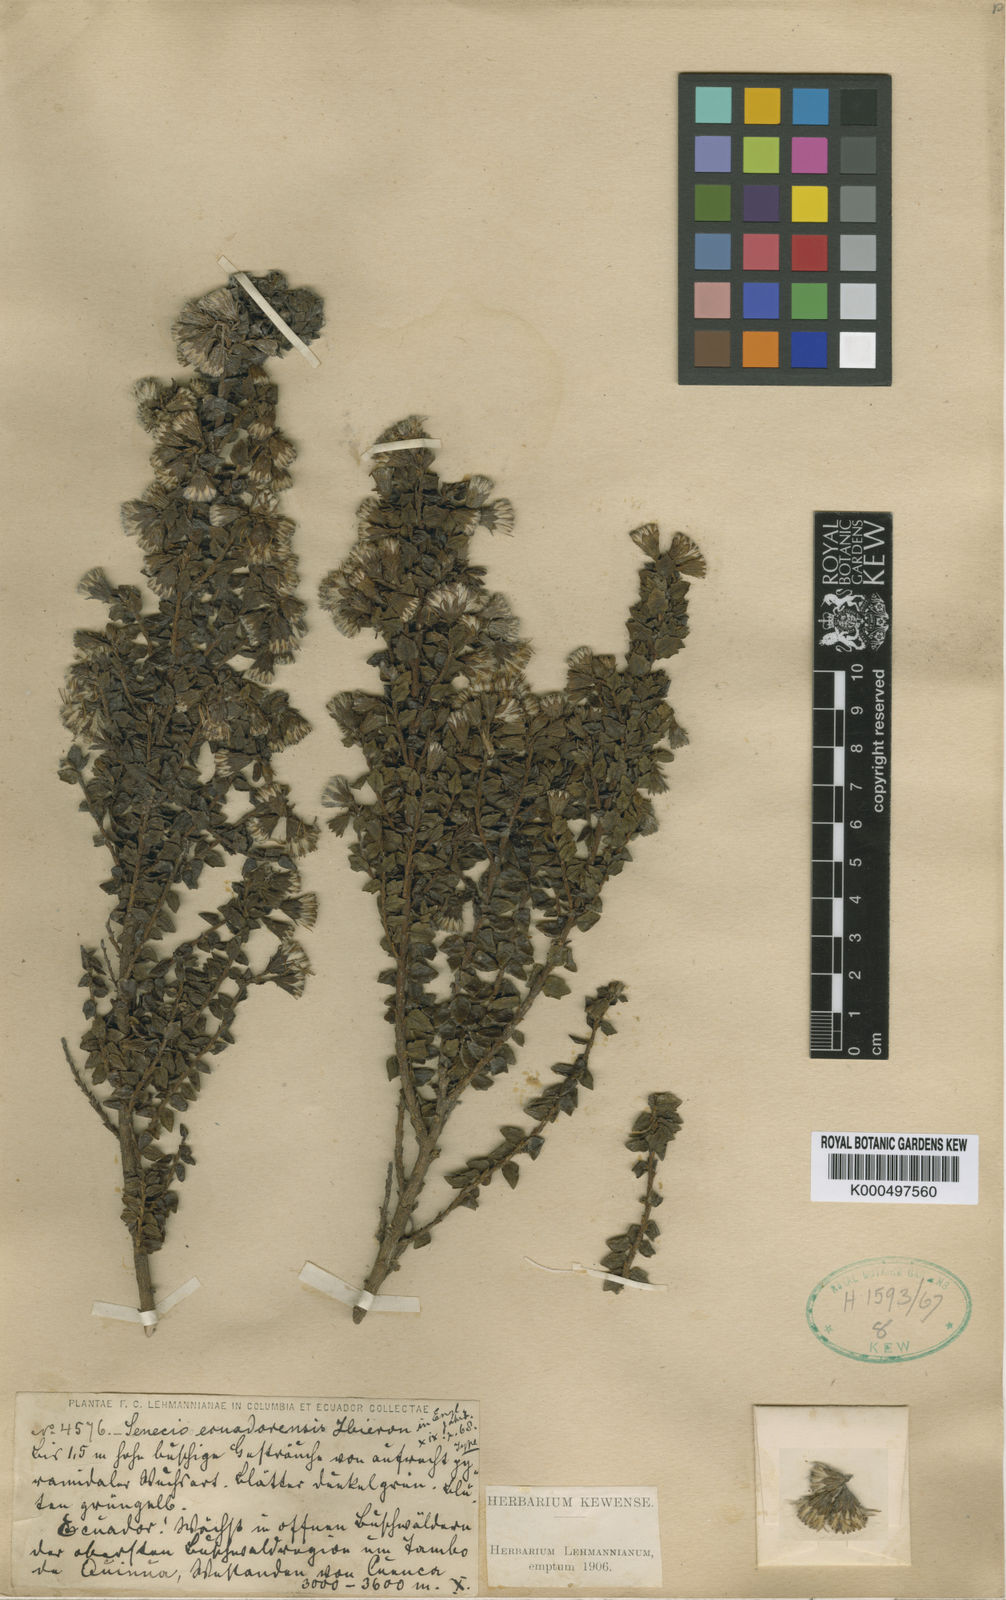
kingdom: Plantae
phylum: Tracheophyta
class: Magnoliopsida
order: Asterales
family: Asteraceae
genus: Monticalia
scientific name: Monticalia myrsinites
